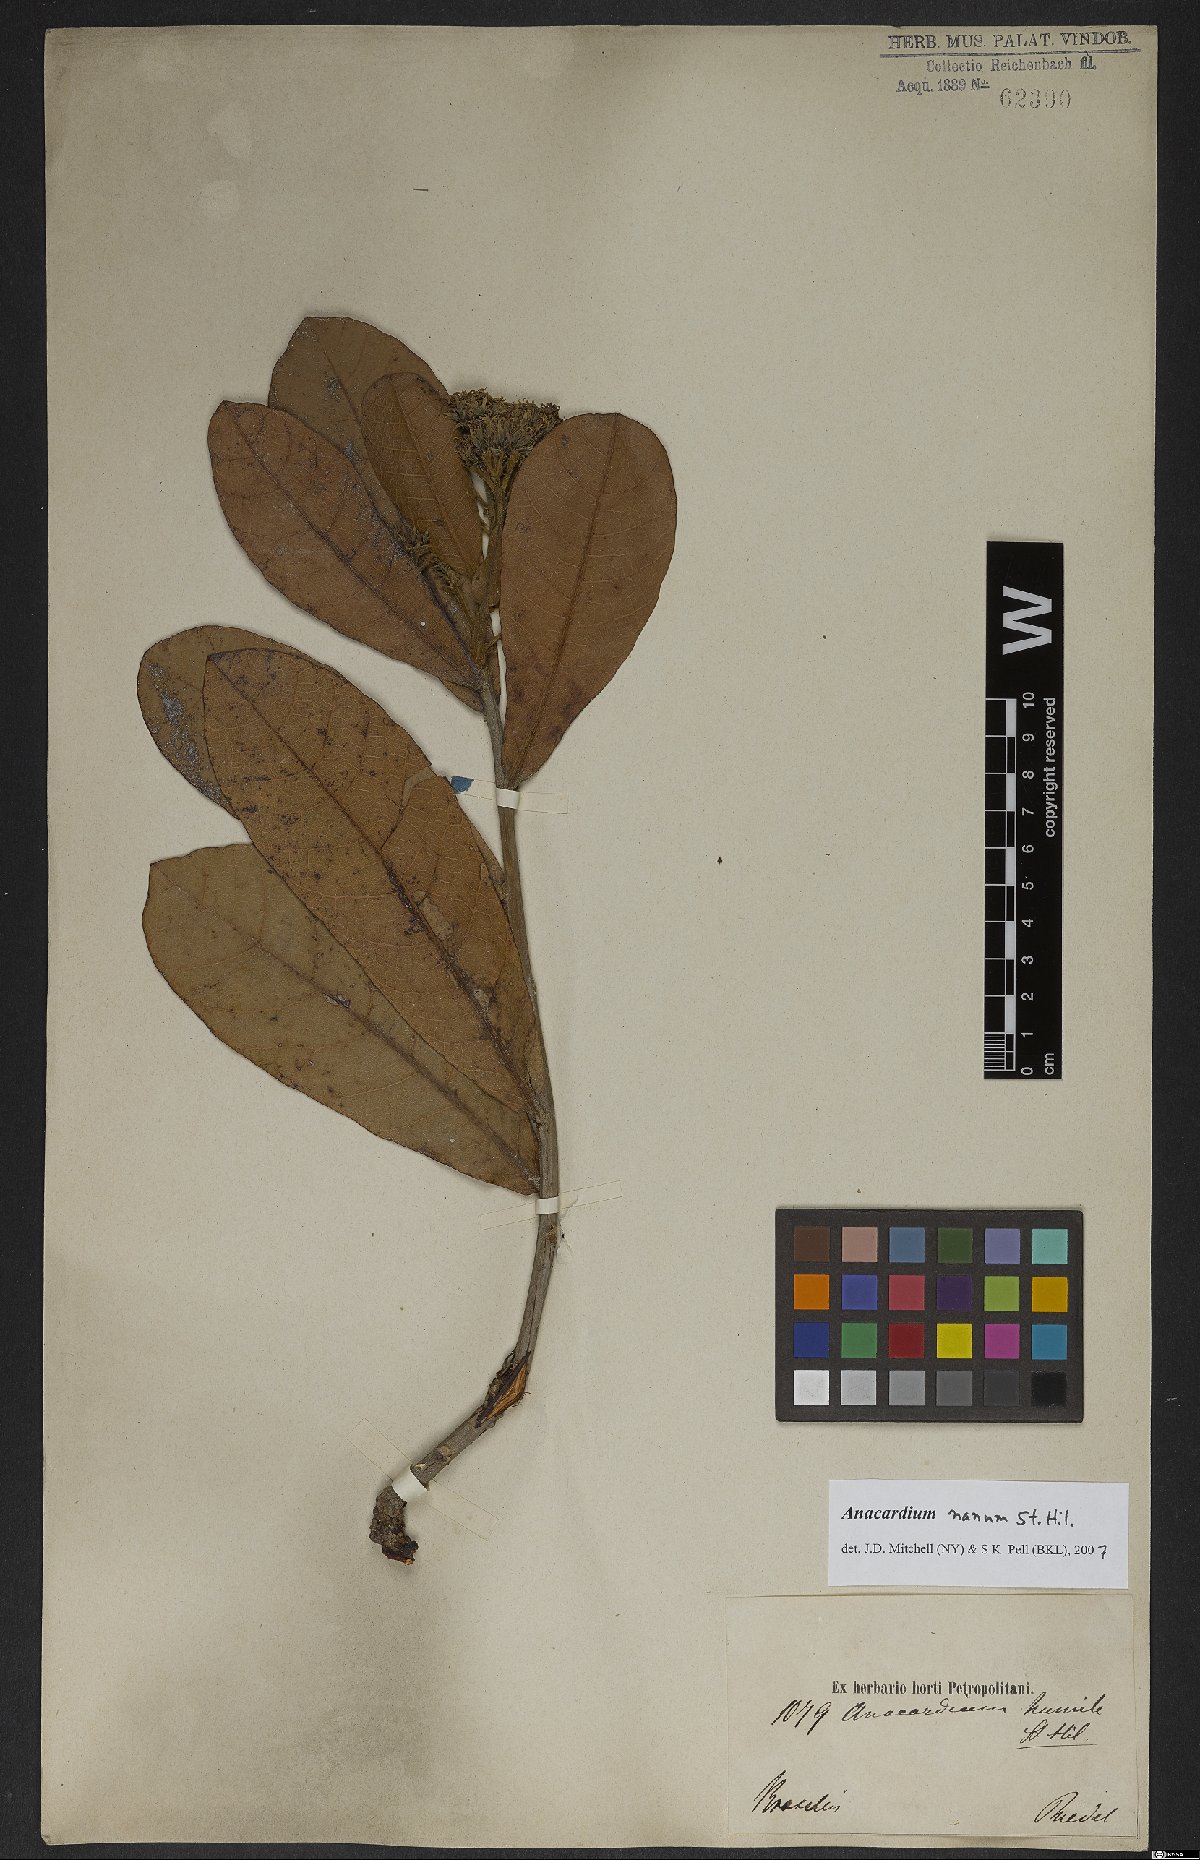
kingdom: Plantae
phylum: Tracheophyta
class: Magnoliopsida
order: Sapindales
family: Anacardiaceae
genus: Anacardium
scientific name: Anacardium nanum
